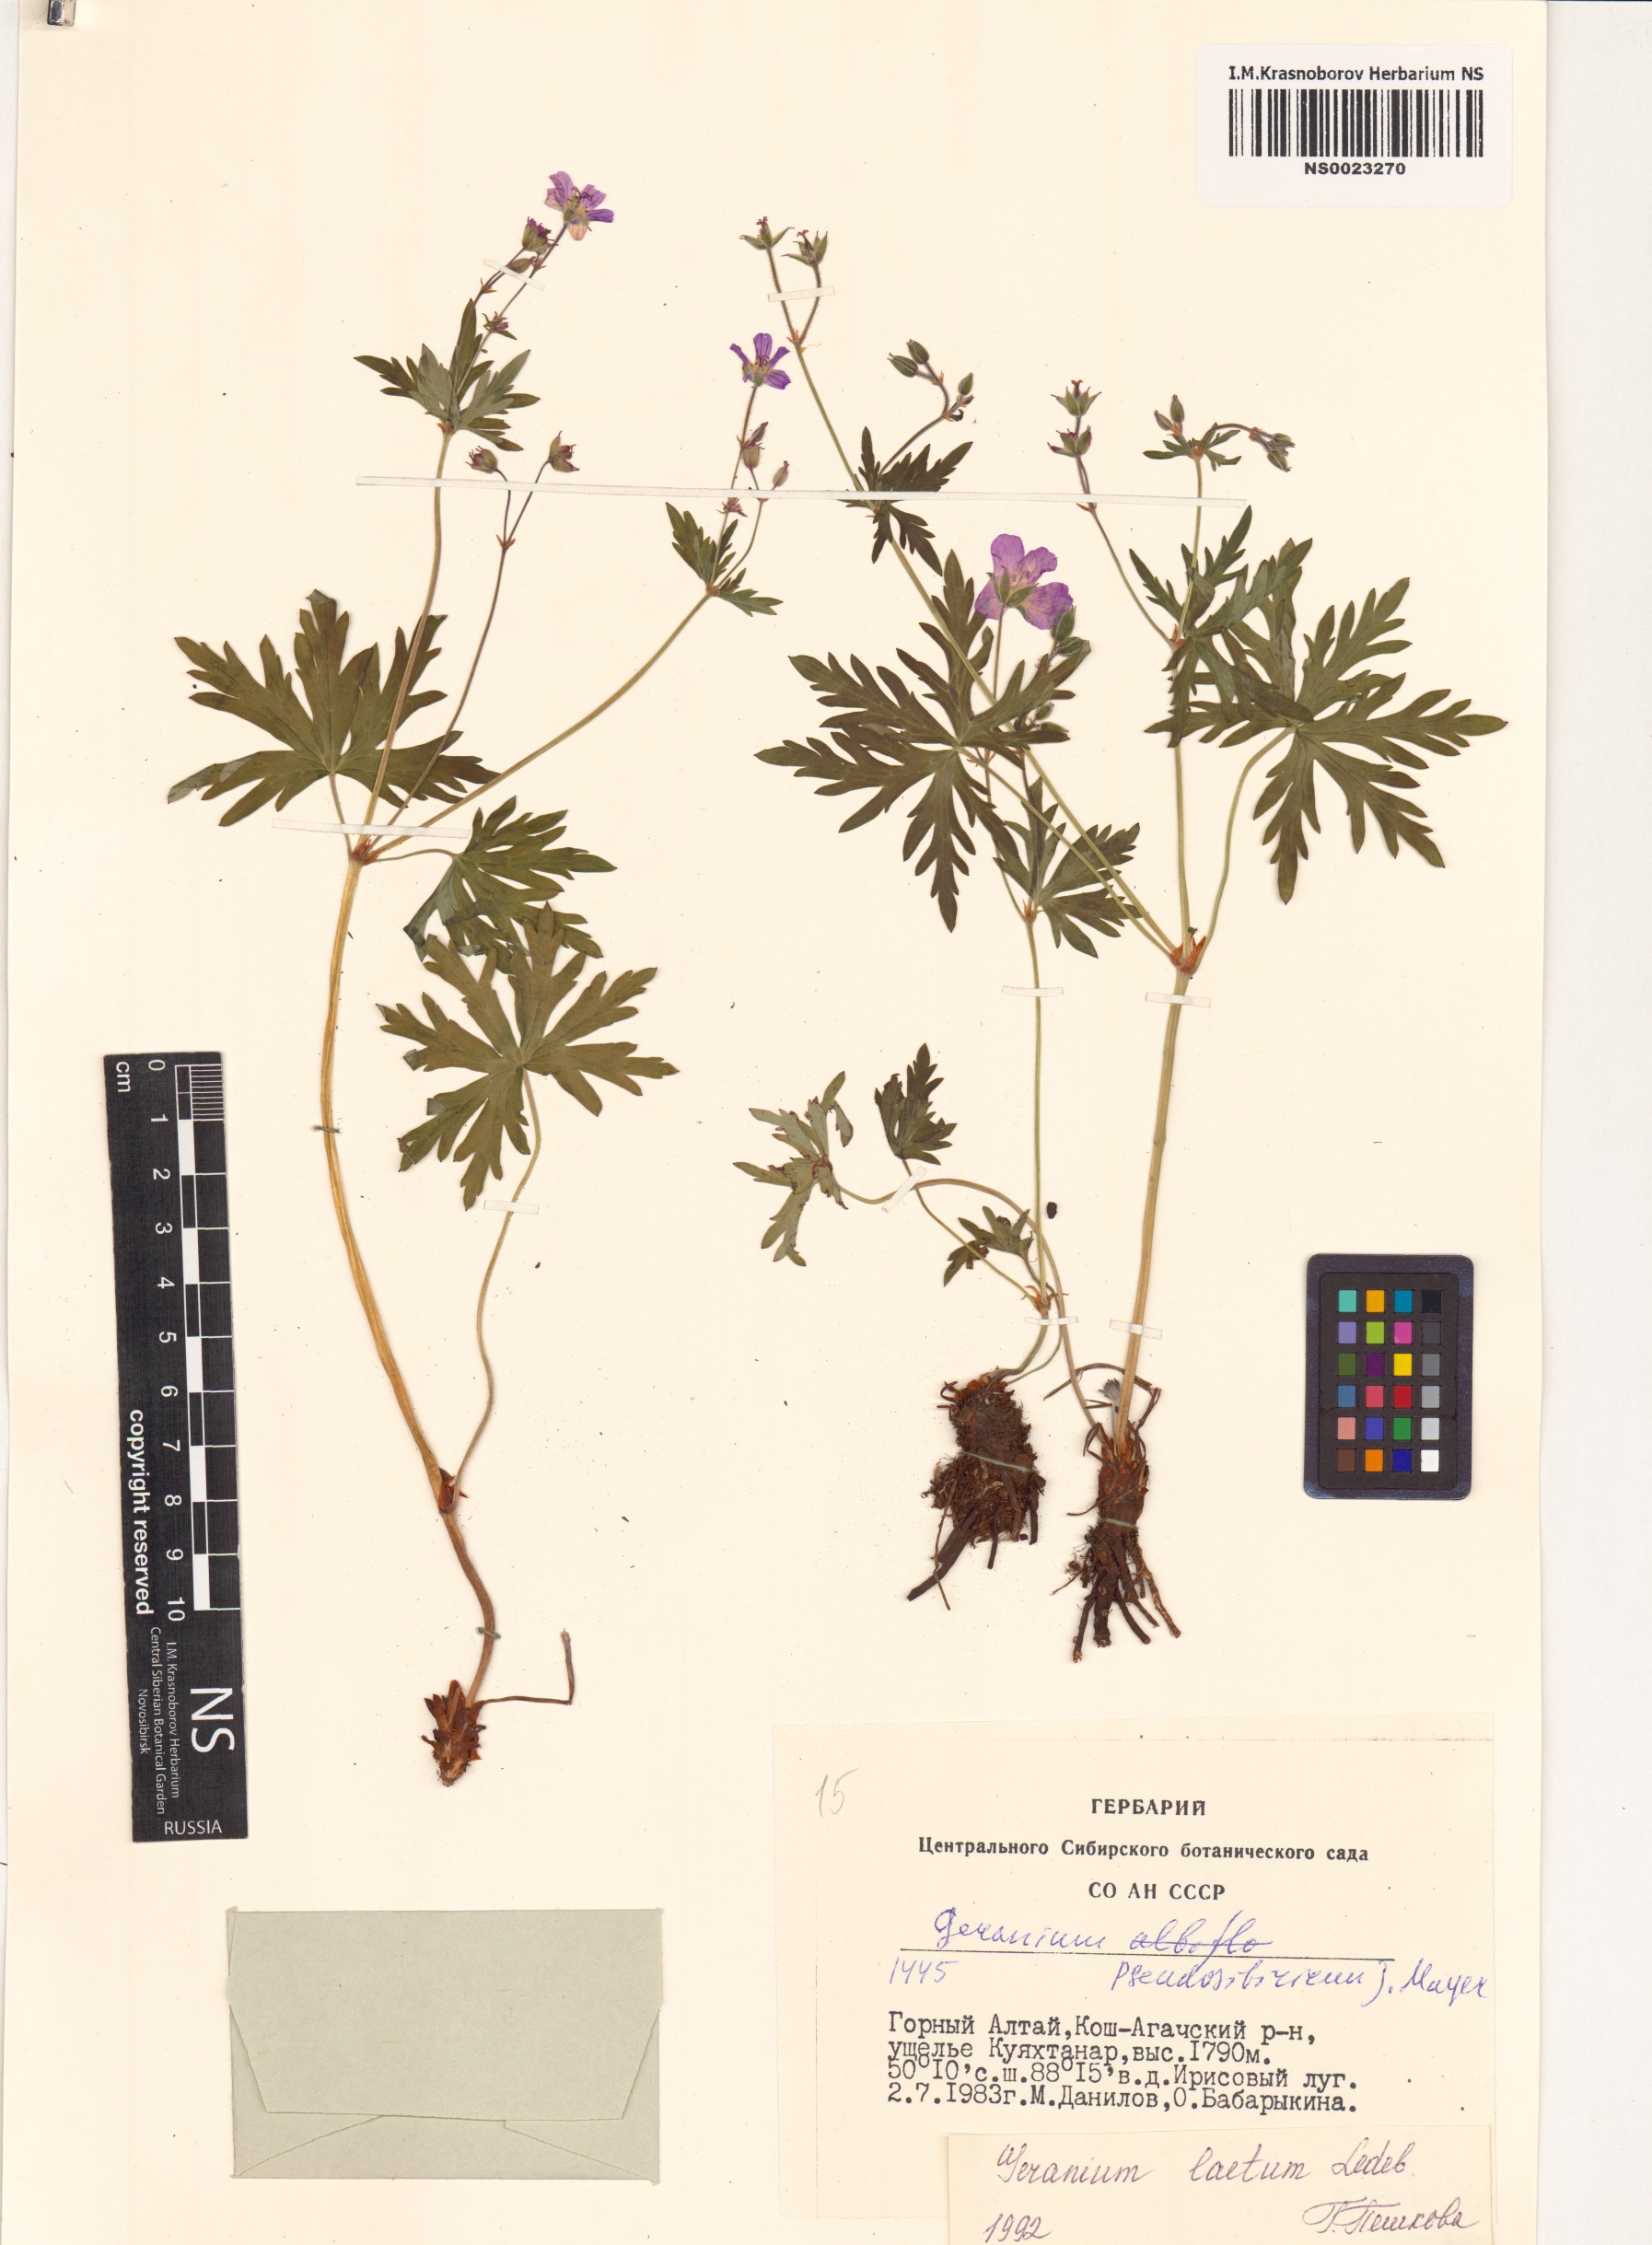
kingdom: Plantae
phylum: Tracheophyta
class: Magnoliopsida
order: Geraniales
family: Geraniaceae
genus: Geranium
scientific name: Geranium pseudosibiricum
